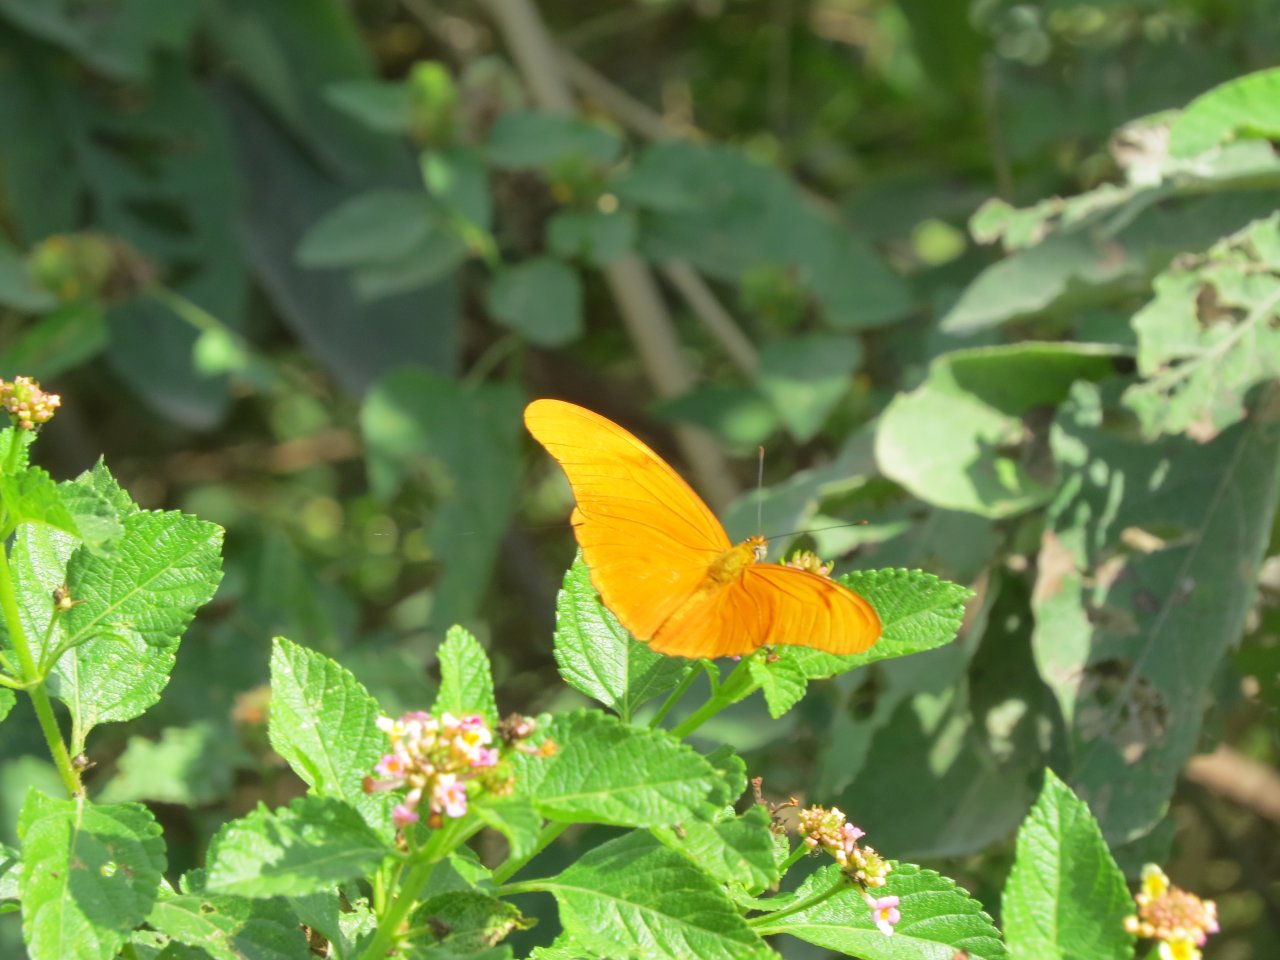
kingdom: Animalia
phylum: Arthropoda
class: Insecta
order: Lepidoptera
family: Nymphalidae
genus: Dryas
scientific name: Dryas iulia
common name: Julia
